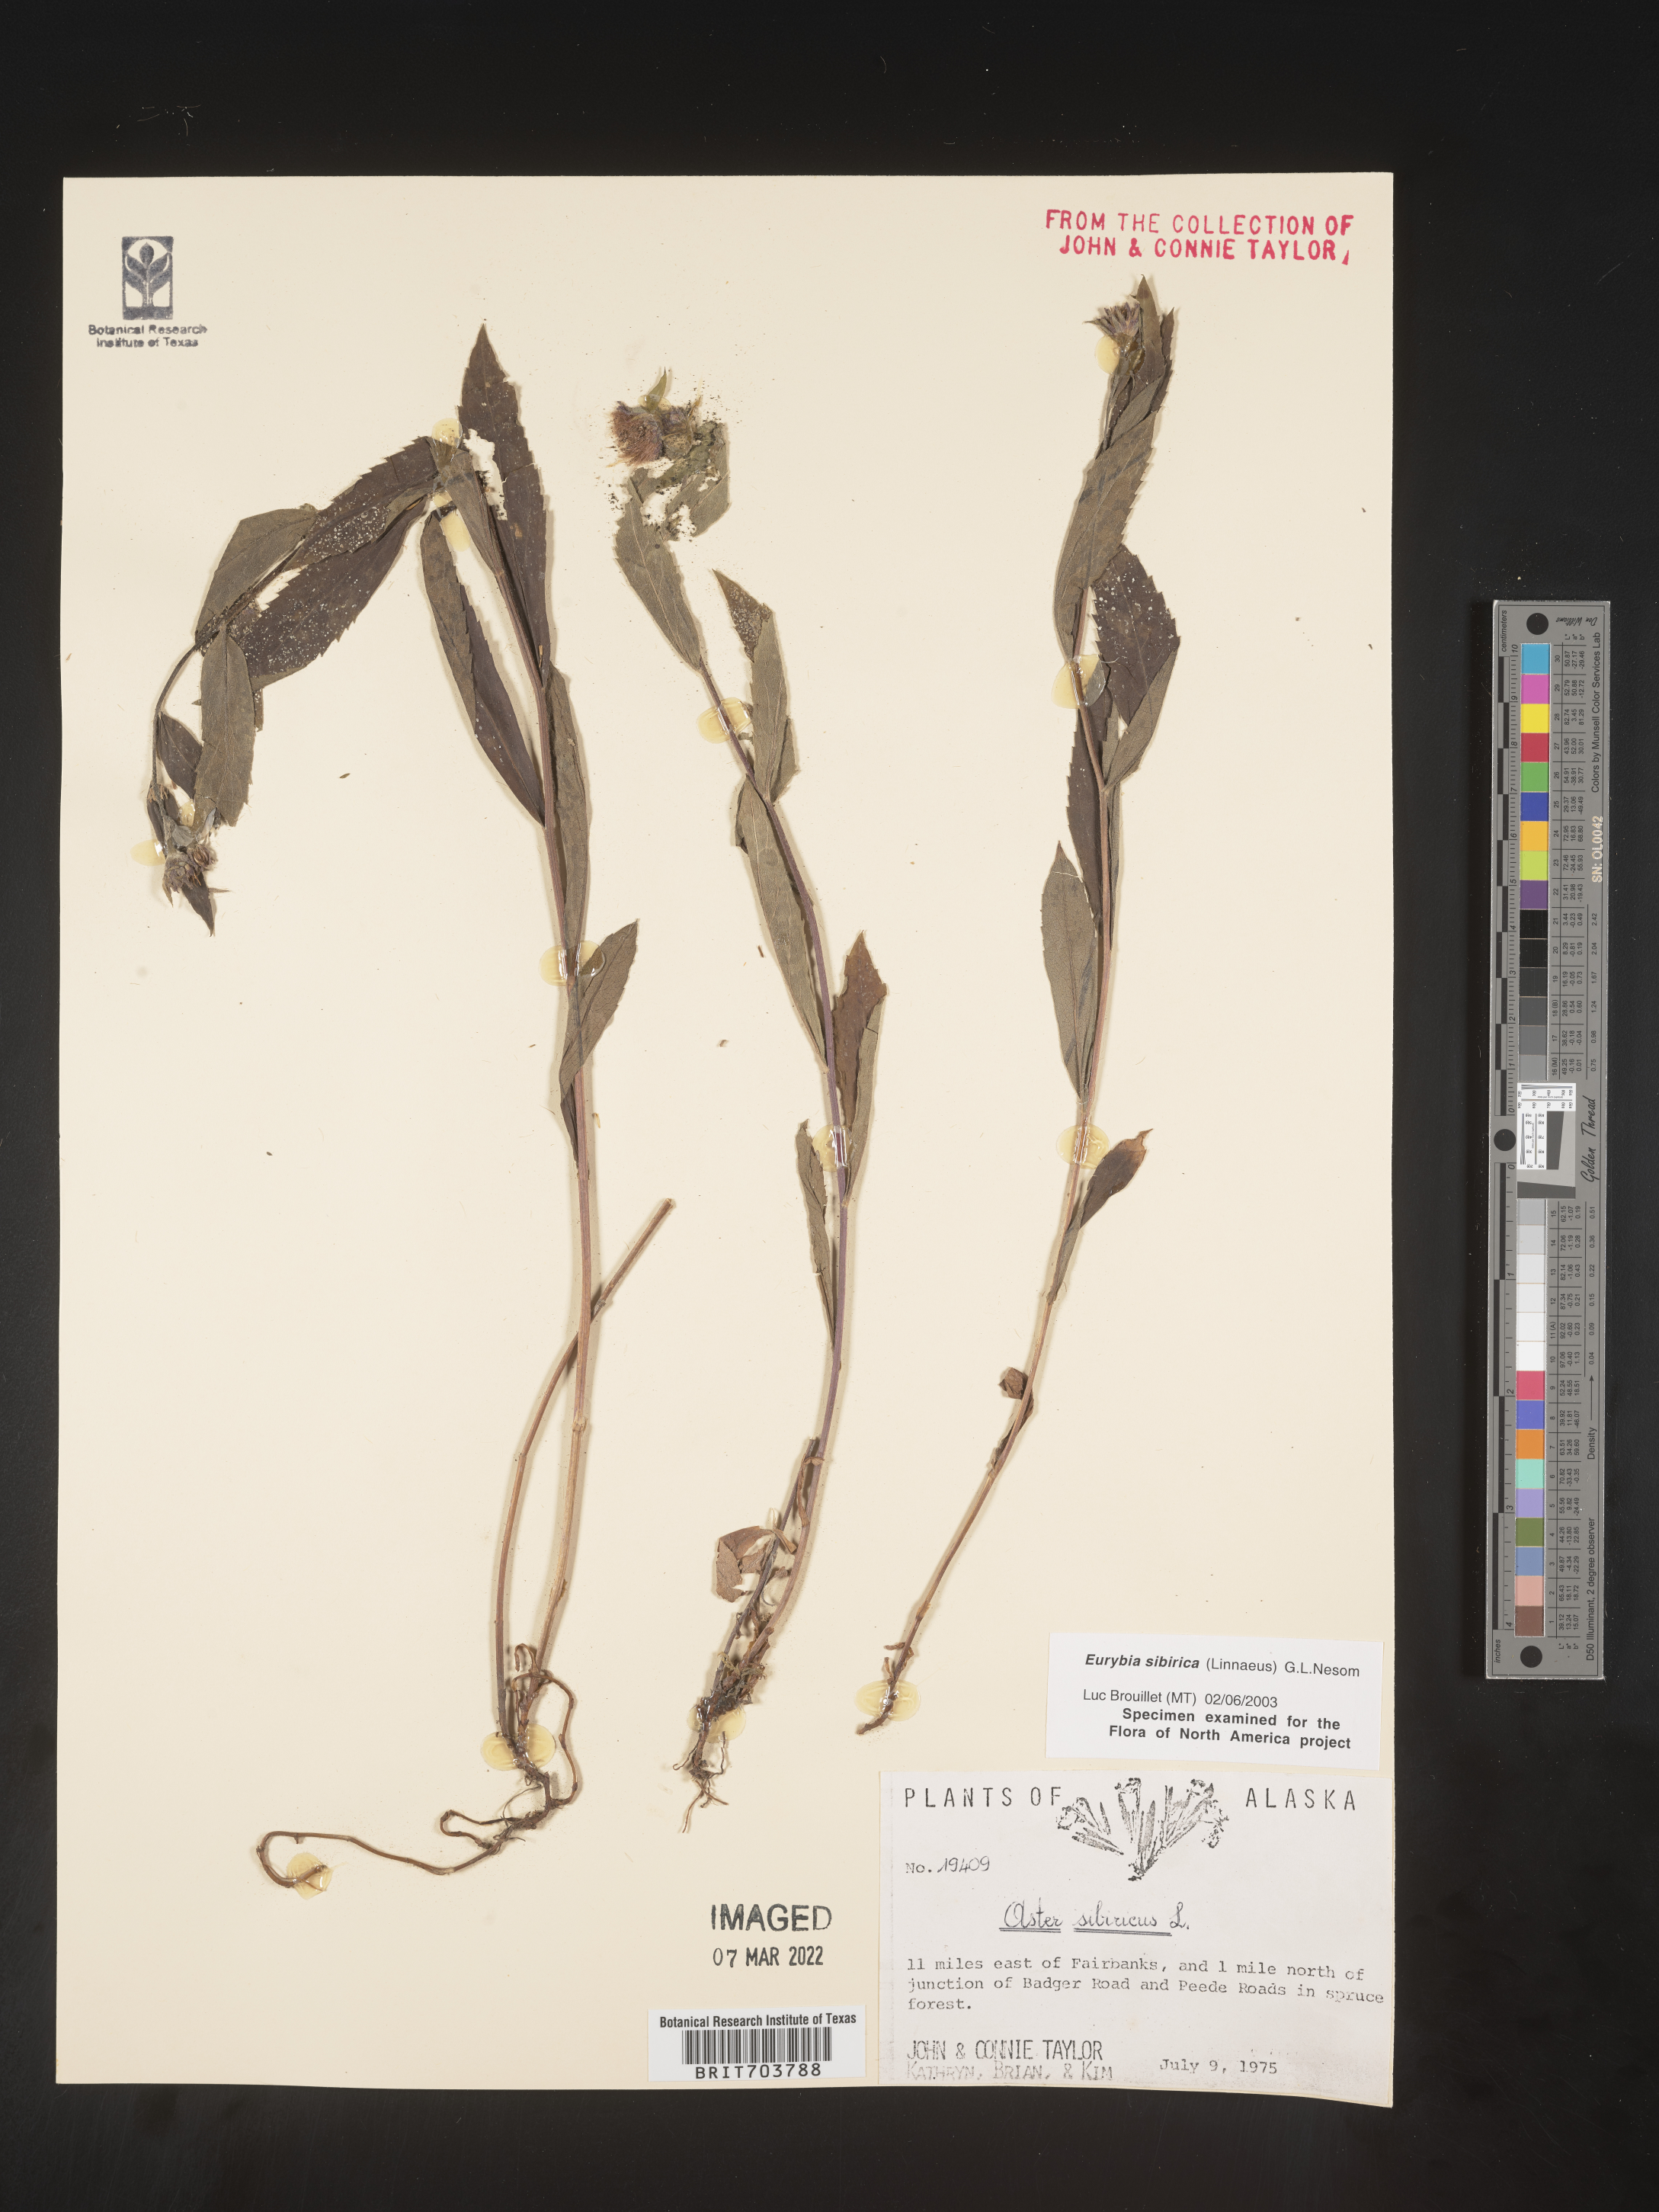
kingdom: Plantae
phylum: Tracheophyta
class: Magnoliopsida
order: Asterales
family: Asteraceae
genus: Eurybia
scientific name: Eurybia sibirica
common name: Arctic aster
